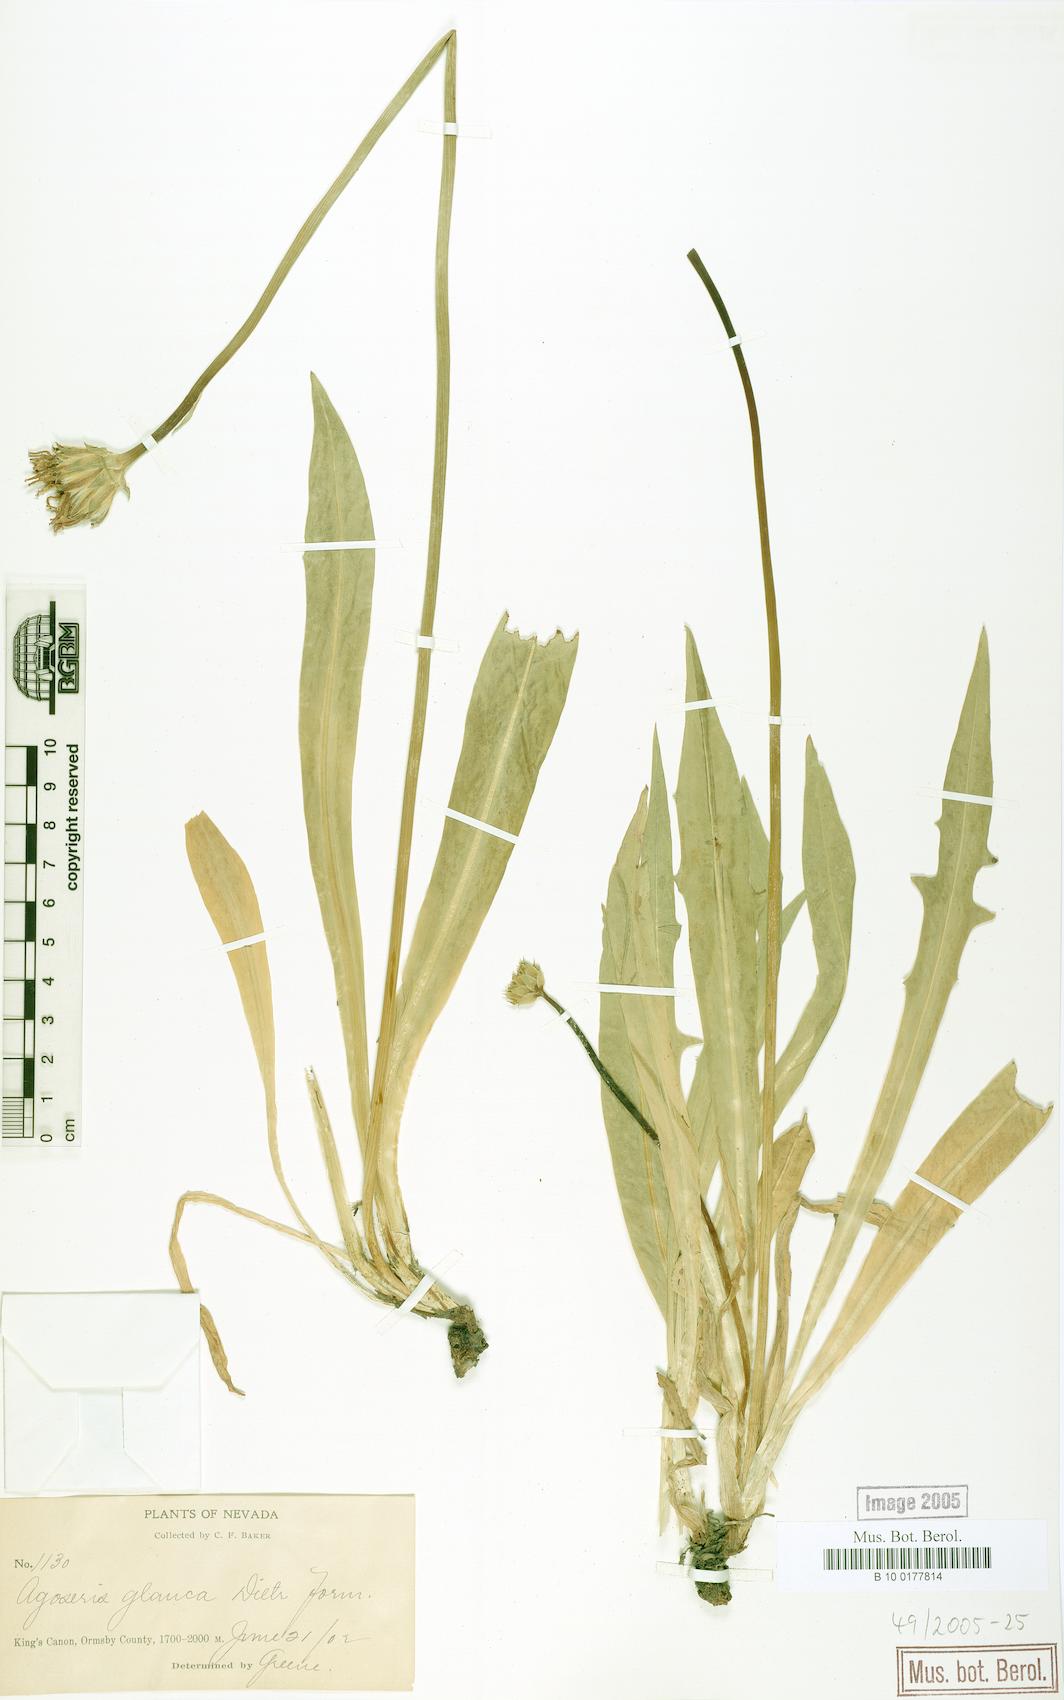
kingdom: Plantae
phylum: Tracheophyta
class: Magnoliopsida
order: Asterales
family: Asteraceae
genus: Agoseris
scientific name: Agoseris glauca
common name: Prairie agoseris
